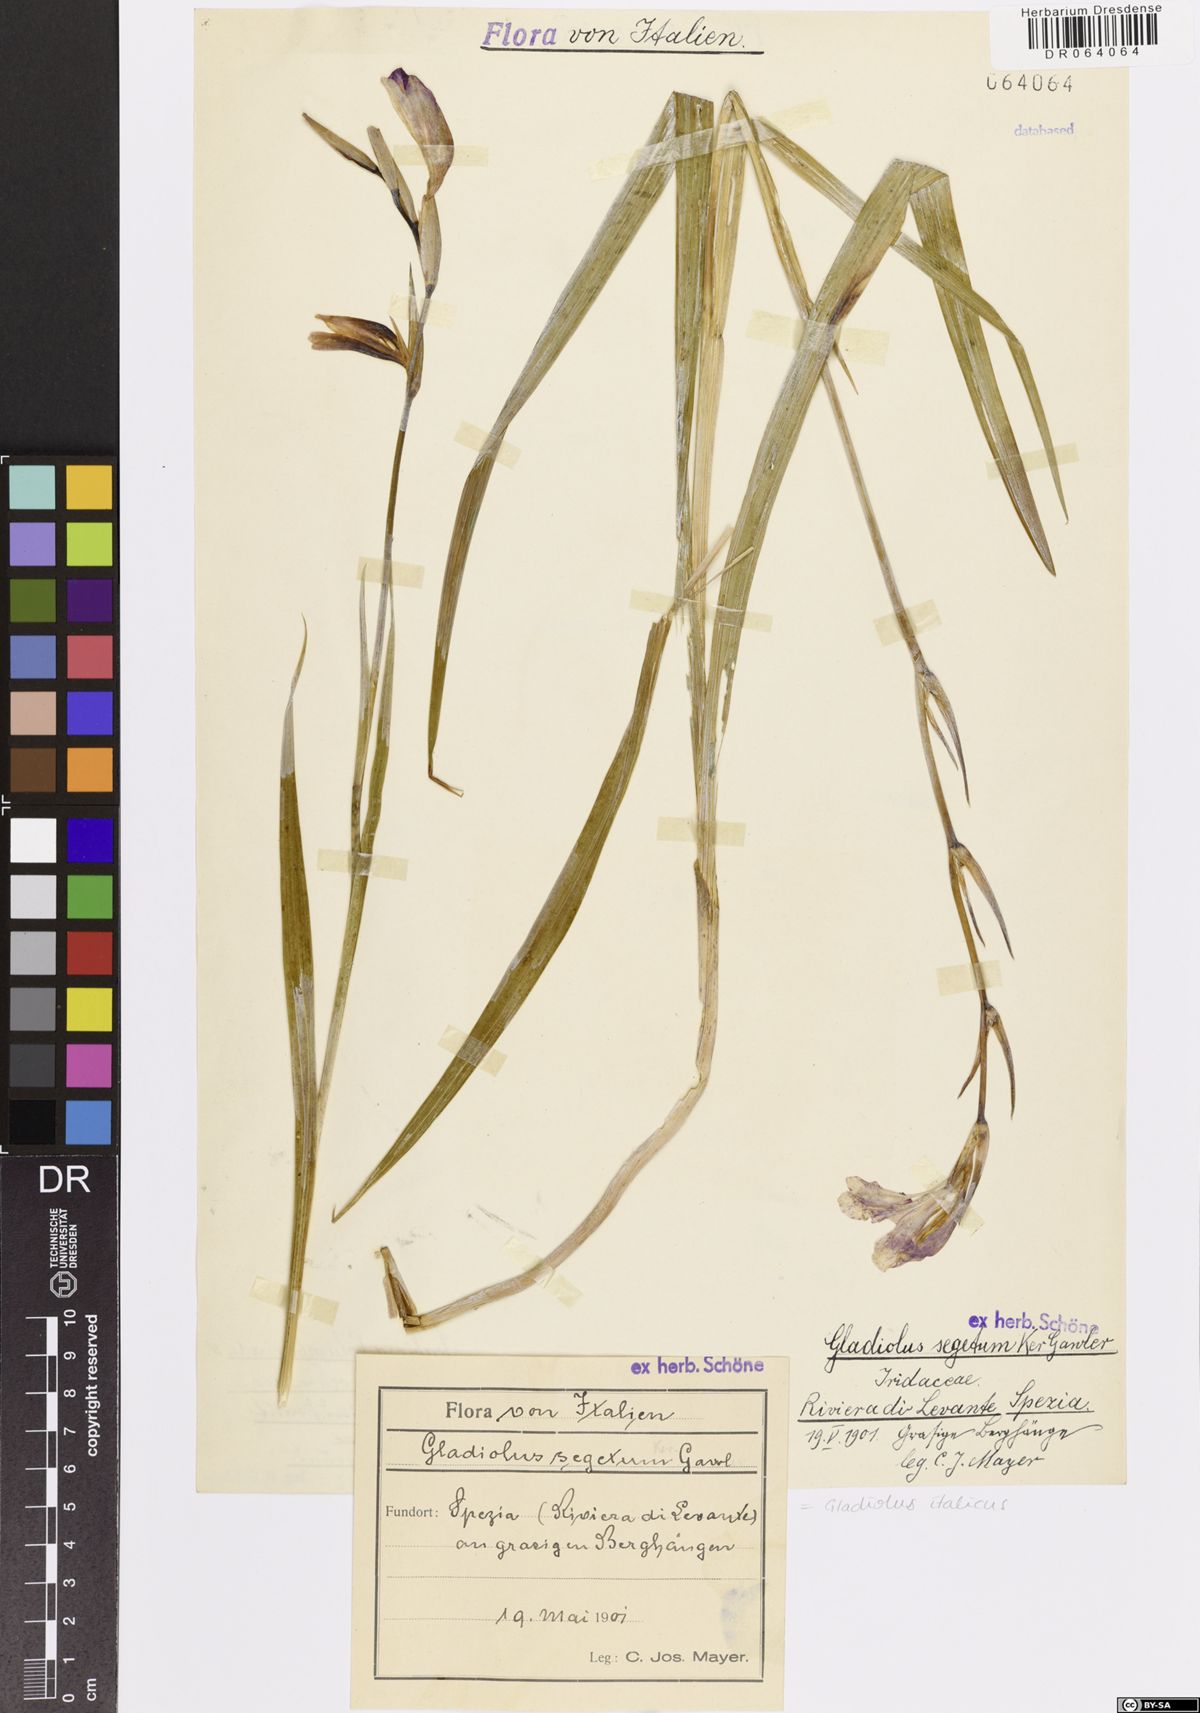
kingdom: Plantae
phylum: Tracheophyta
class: Liliopsida
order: Asparagales
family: Iridaceae
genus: Gladiolus
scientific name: Gladiolus italicus
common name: Field gladiolus
